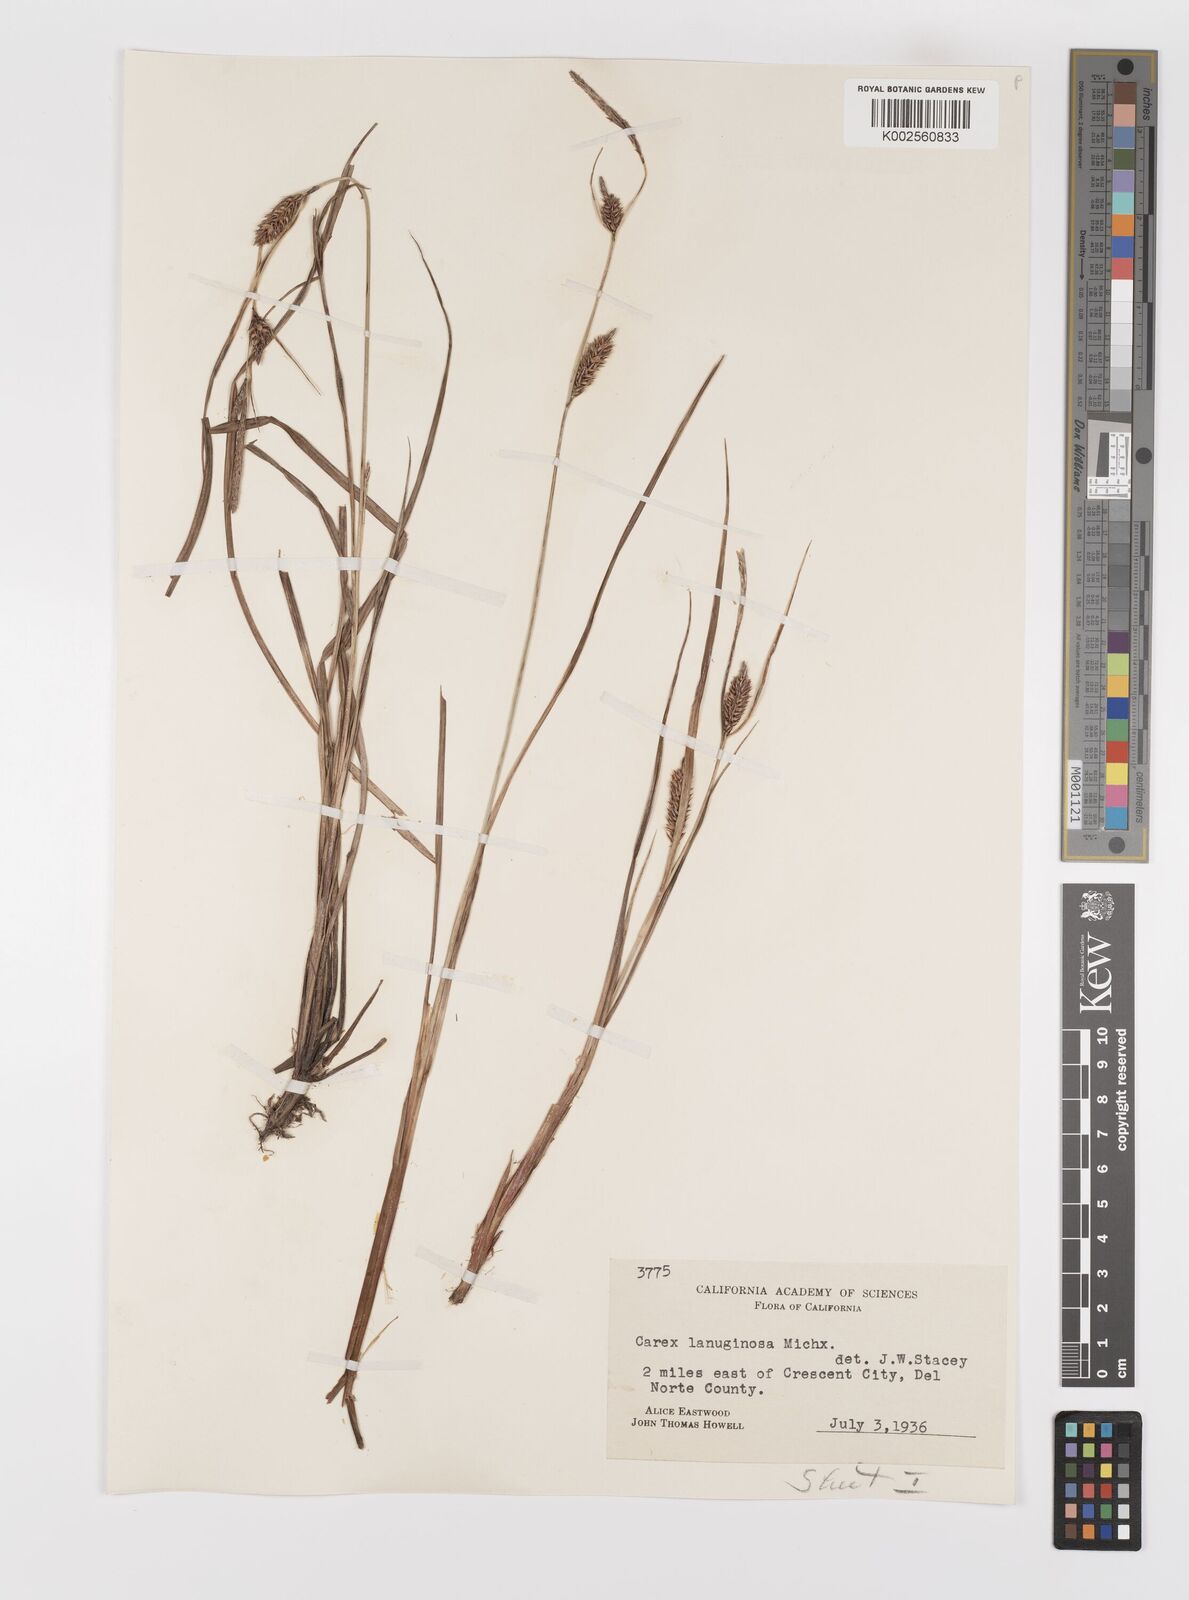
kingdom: Plantae
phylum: Tracheophyta
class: Liliopsida
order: Poales
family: Cyperaceae
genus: Carex
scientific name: Carex lasiocarpa
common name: Slender sedge
